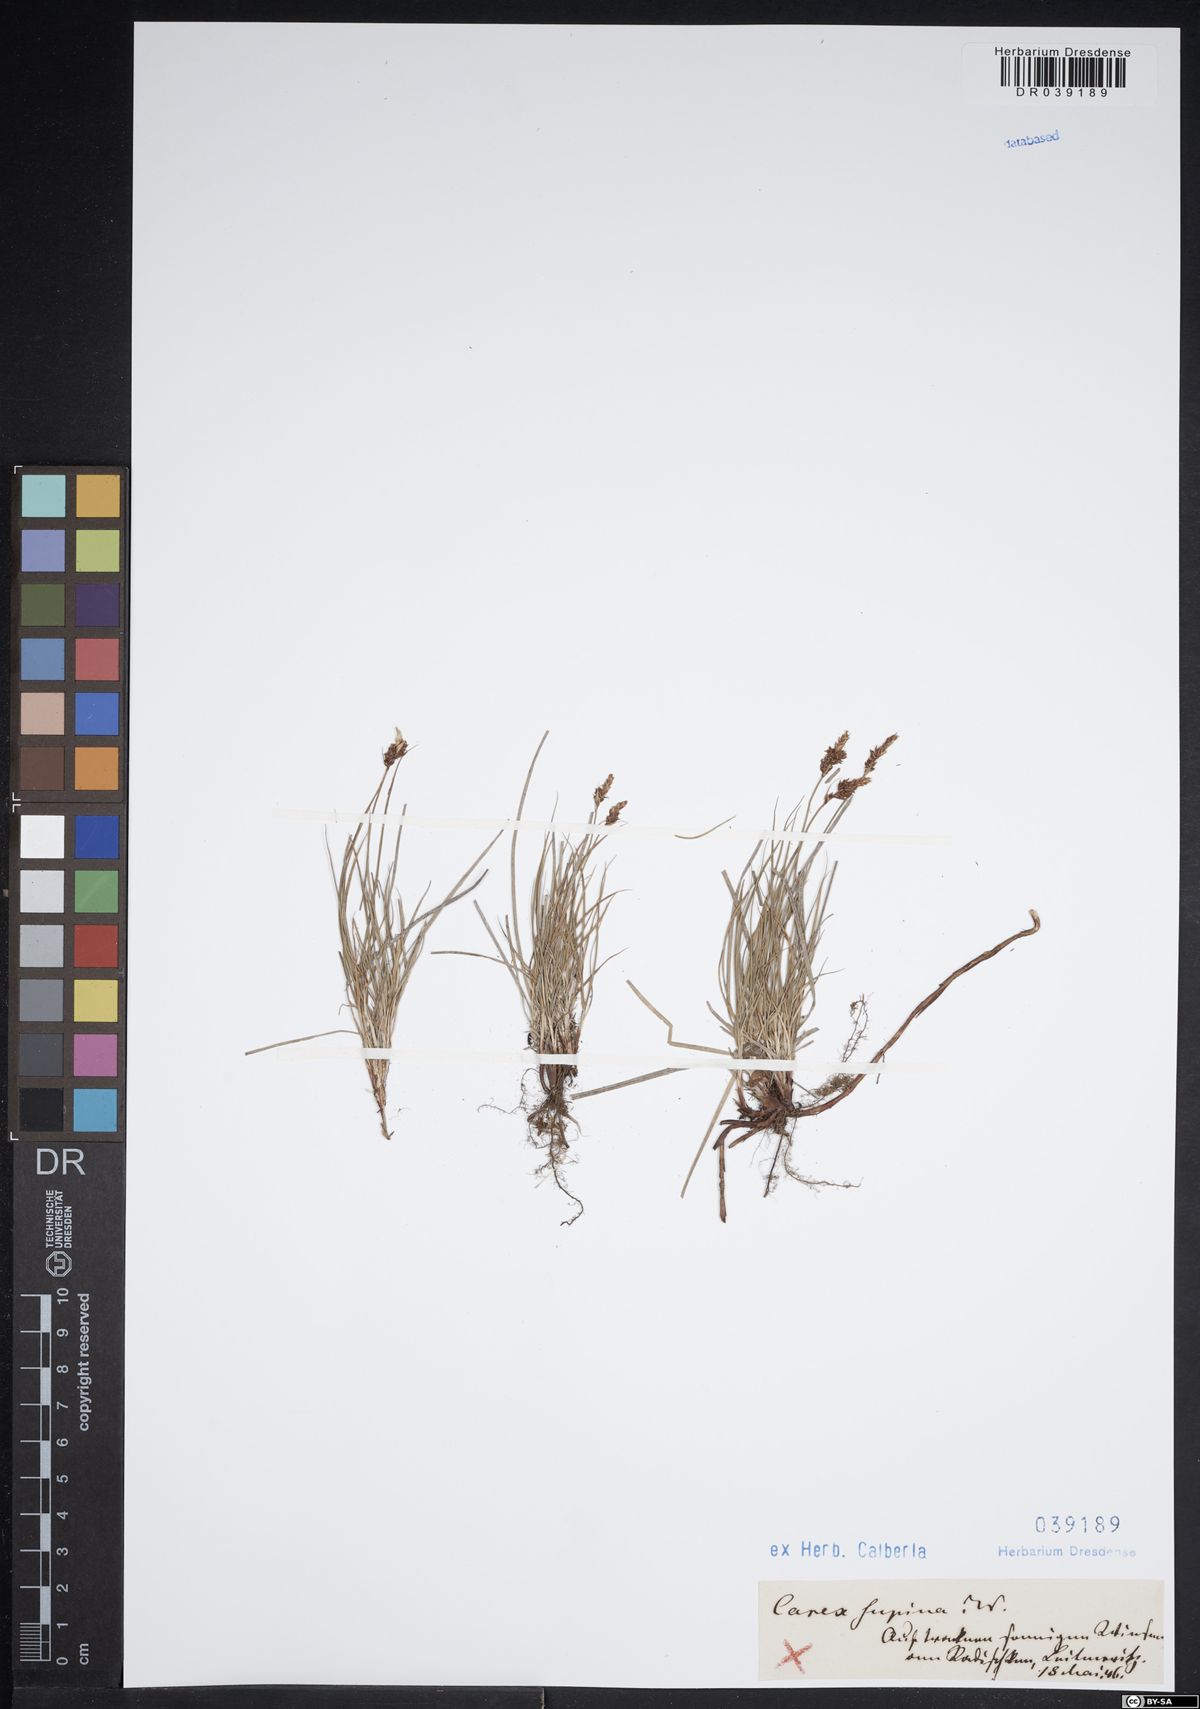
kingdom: Plantae
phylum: Tracheophyta
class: Liliopsida
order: Poales
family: Cyperaceae
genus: Carex
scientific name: Carex supina
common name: Lying-back sedge
